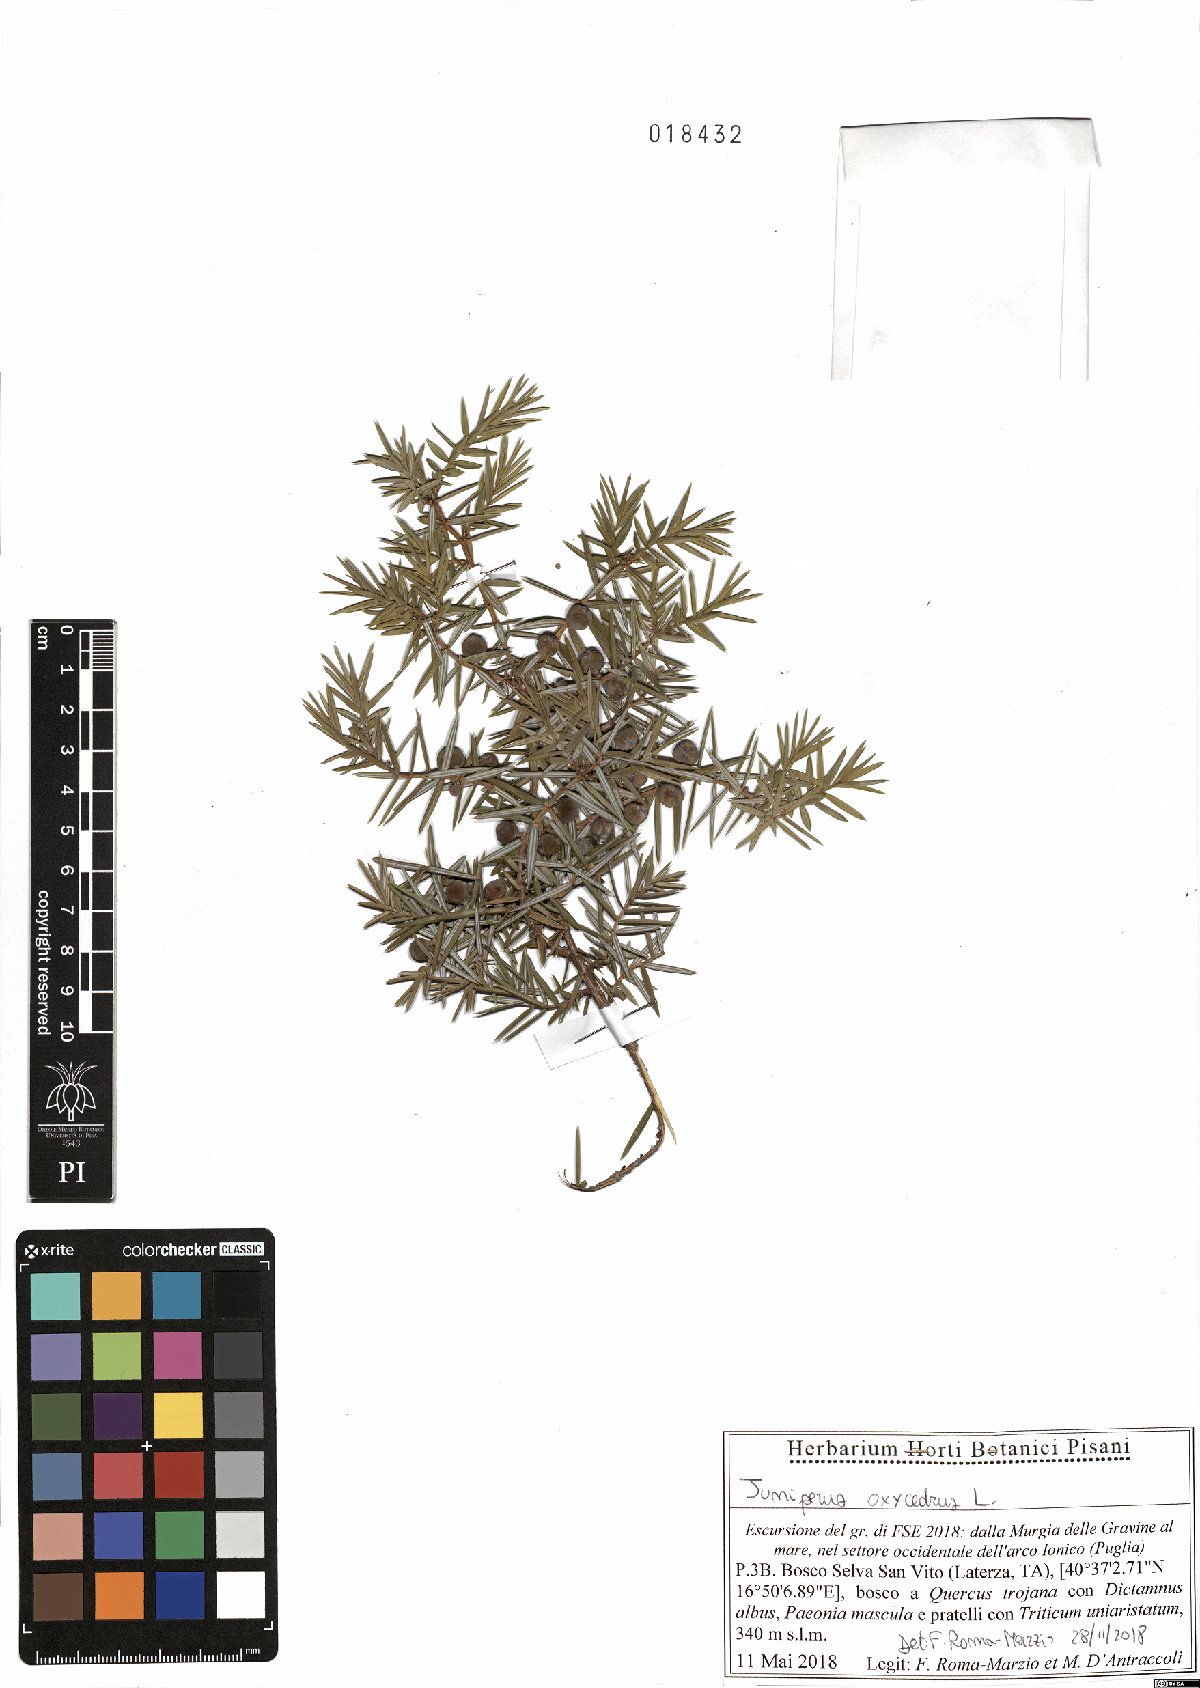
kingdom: Plantae
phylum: Tracheophyta
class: Pinopsida
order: Pinales
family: Cupressaceae
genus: Juniperus
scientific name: Juniperus oxycedrus
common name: Prickly juniper
